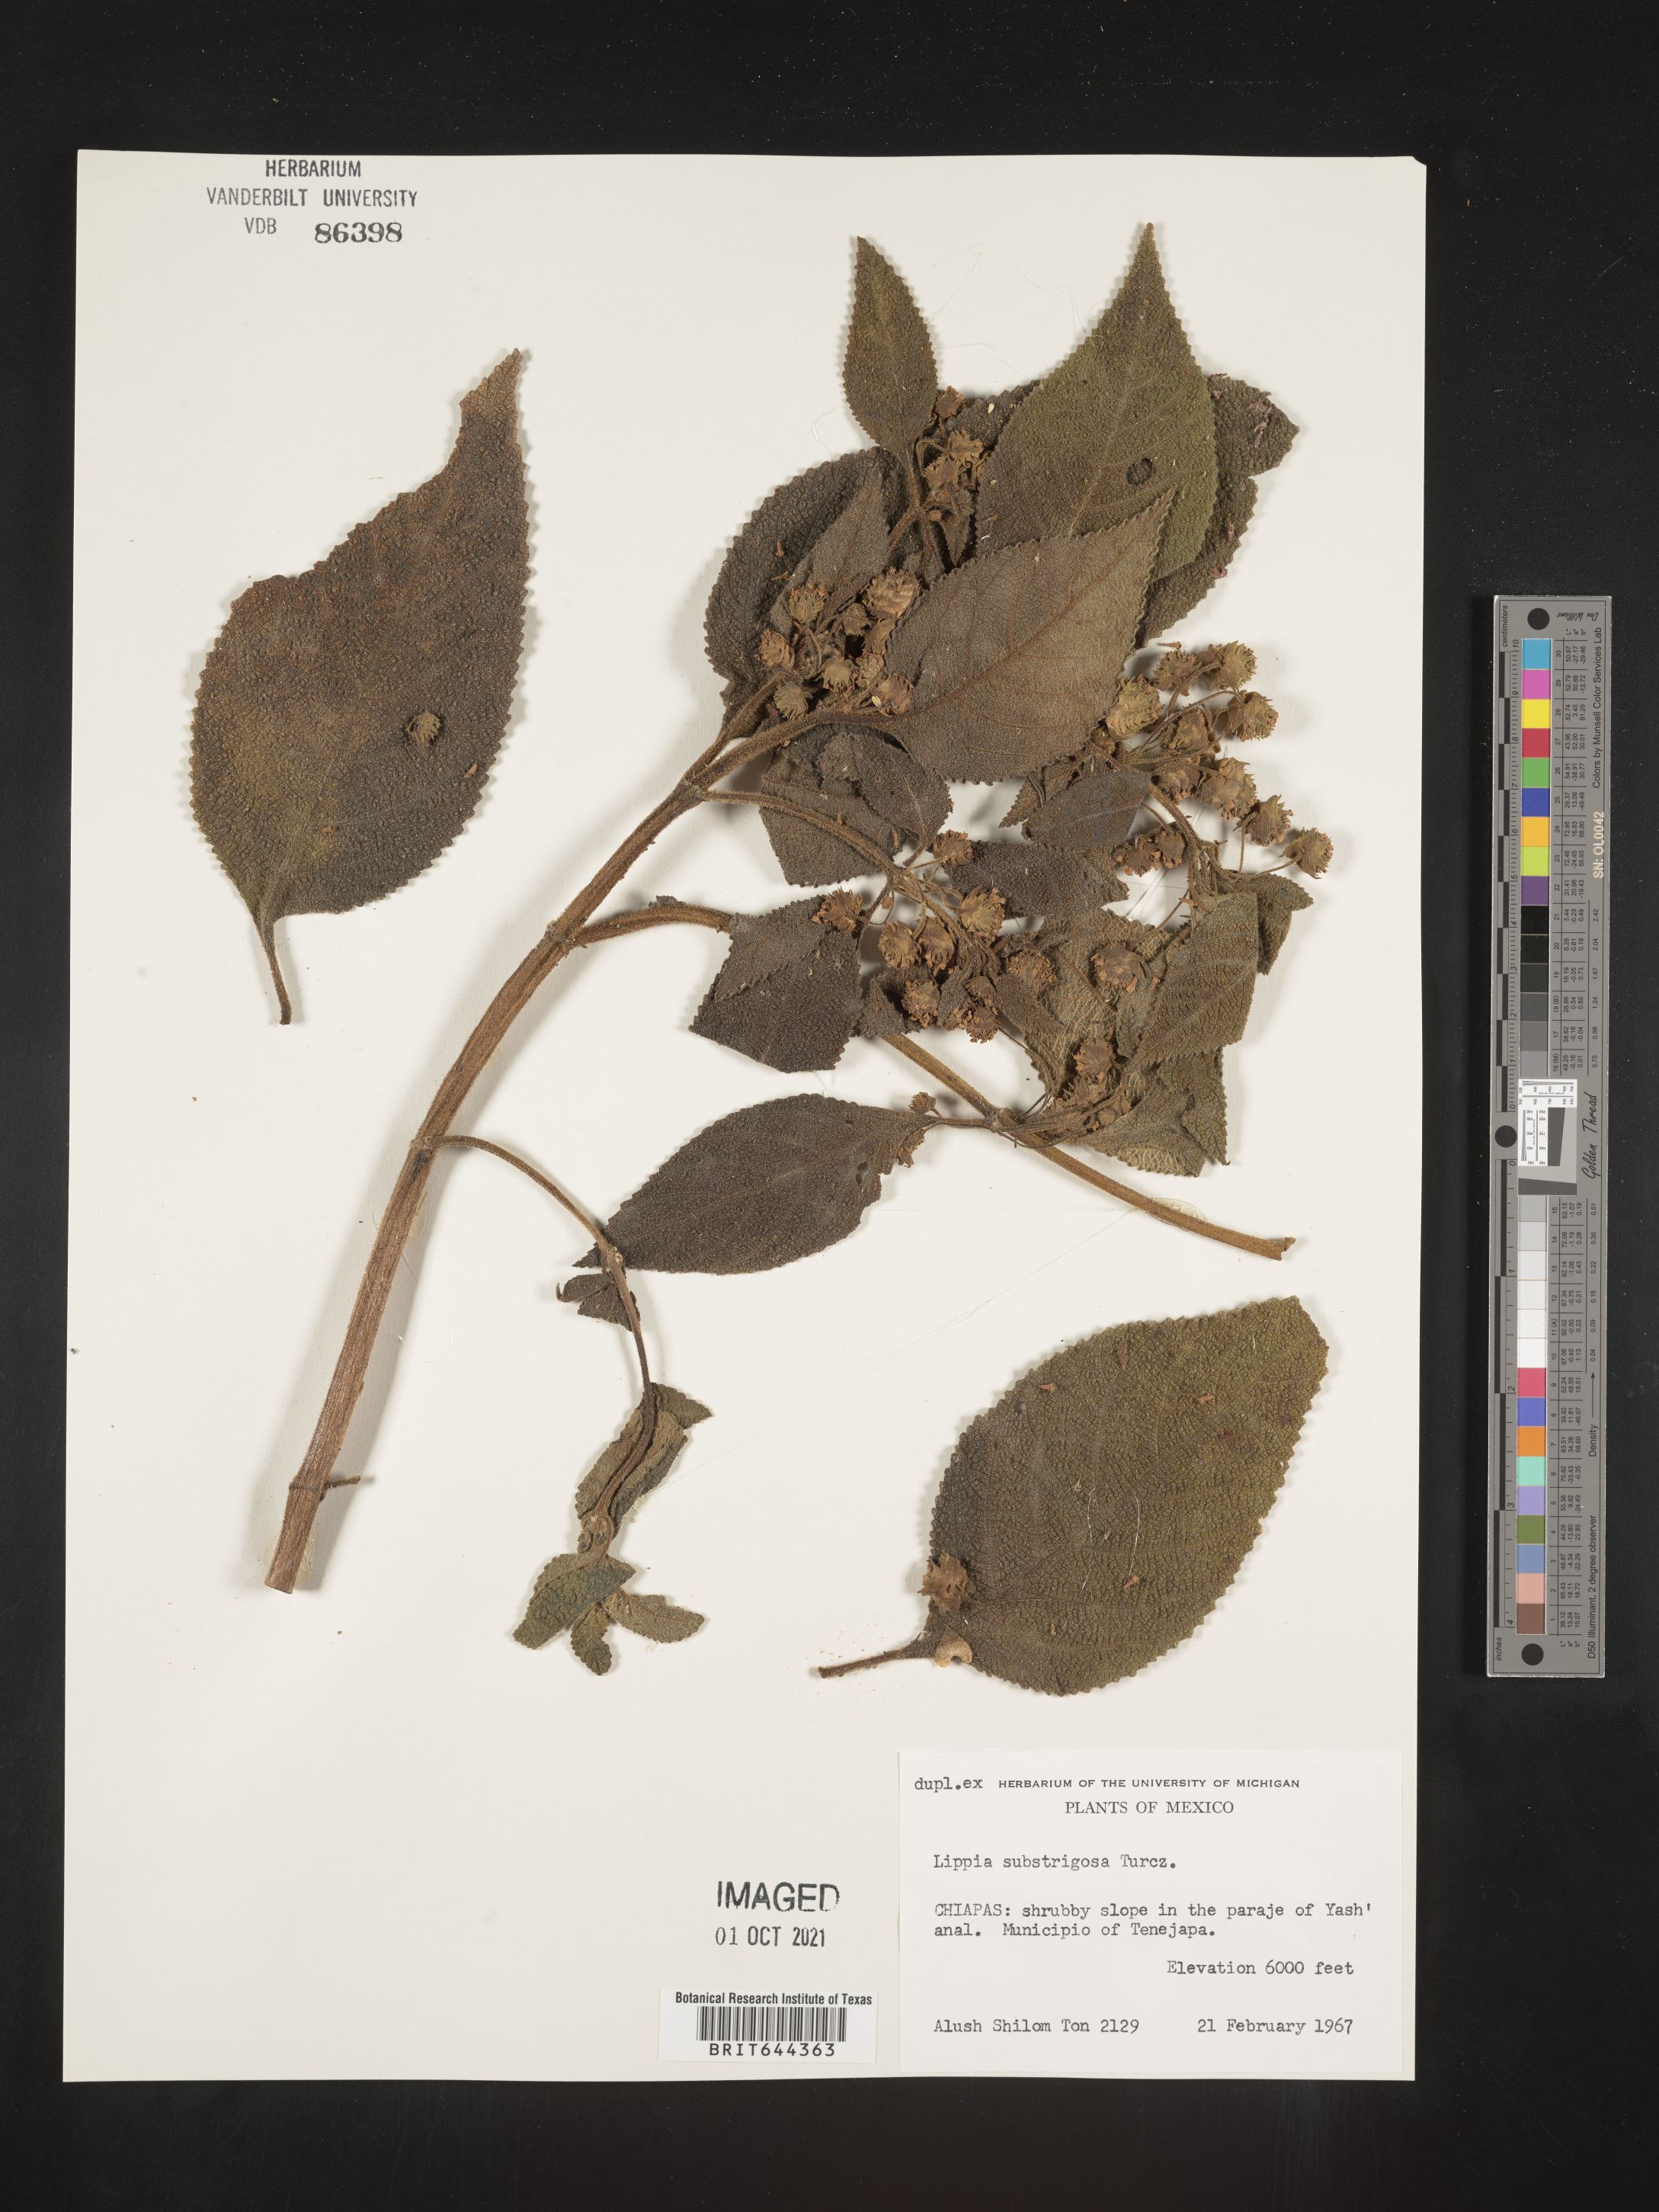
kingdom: Plantae
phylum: Tracheophyta
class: Magnoliopsida
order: Lamiales
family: Verbenaceae
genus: Lippia
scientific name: Lippia
